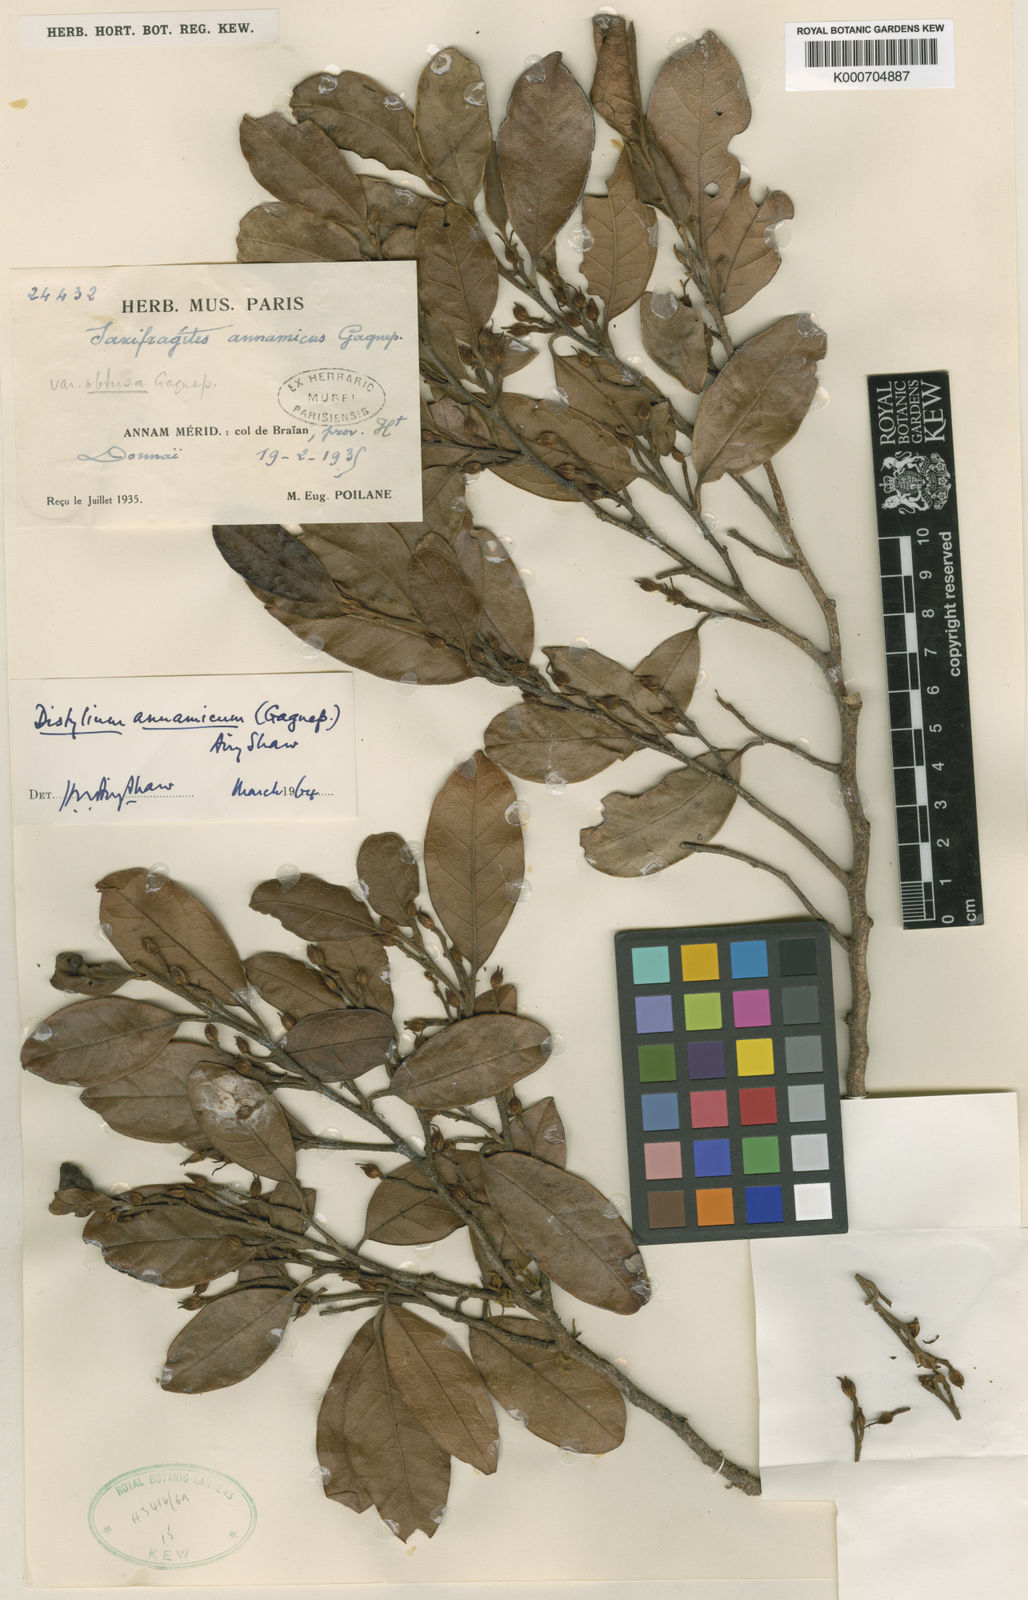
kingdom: Plantae
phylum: Tracheophyta
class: Magnoliopsida
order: Saxifragales
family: Hamamelidaceae
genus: Distylium
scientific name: Distylium annamicum
